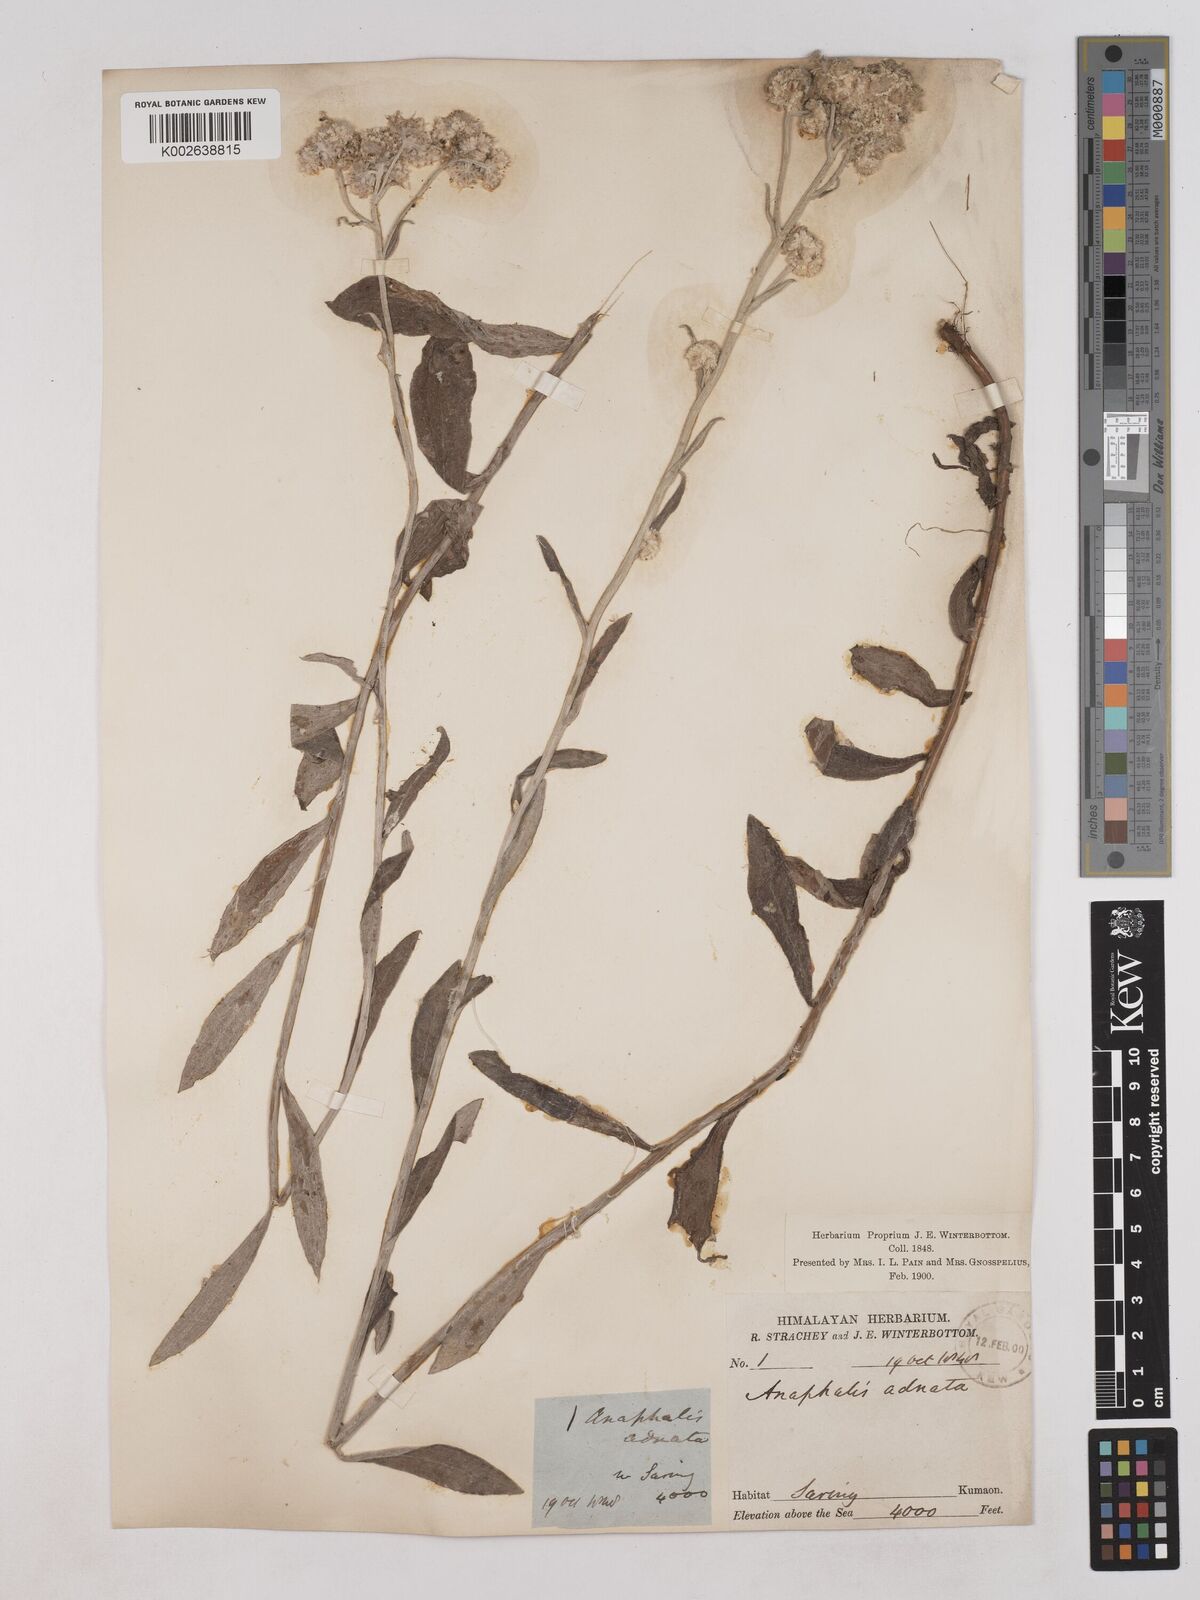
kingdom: Plantae
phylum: Tracheophyta
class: Magnoliopsida
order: Asterales
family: Asteraceae
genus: Pseudognaphalium
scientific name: Pseudognaphalium adnatum
